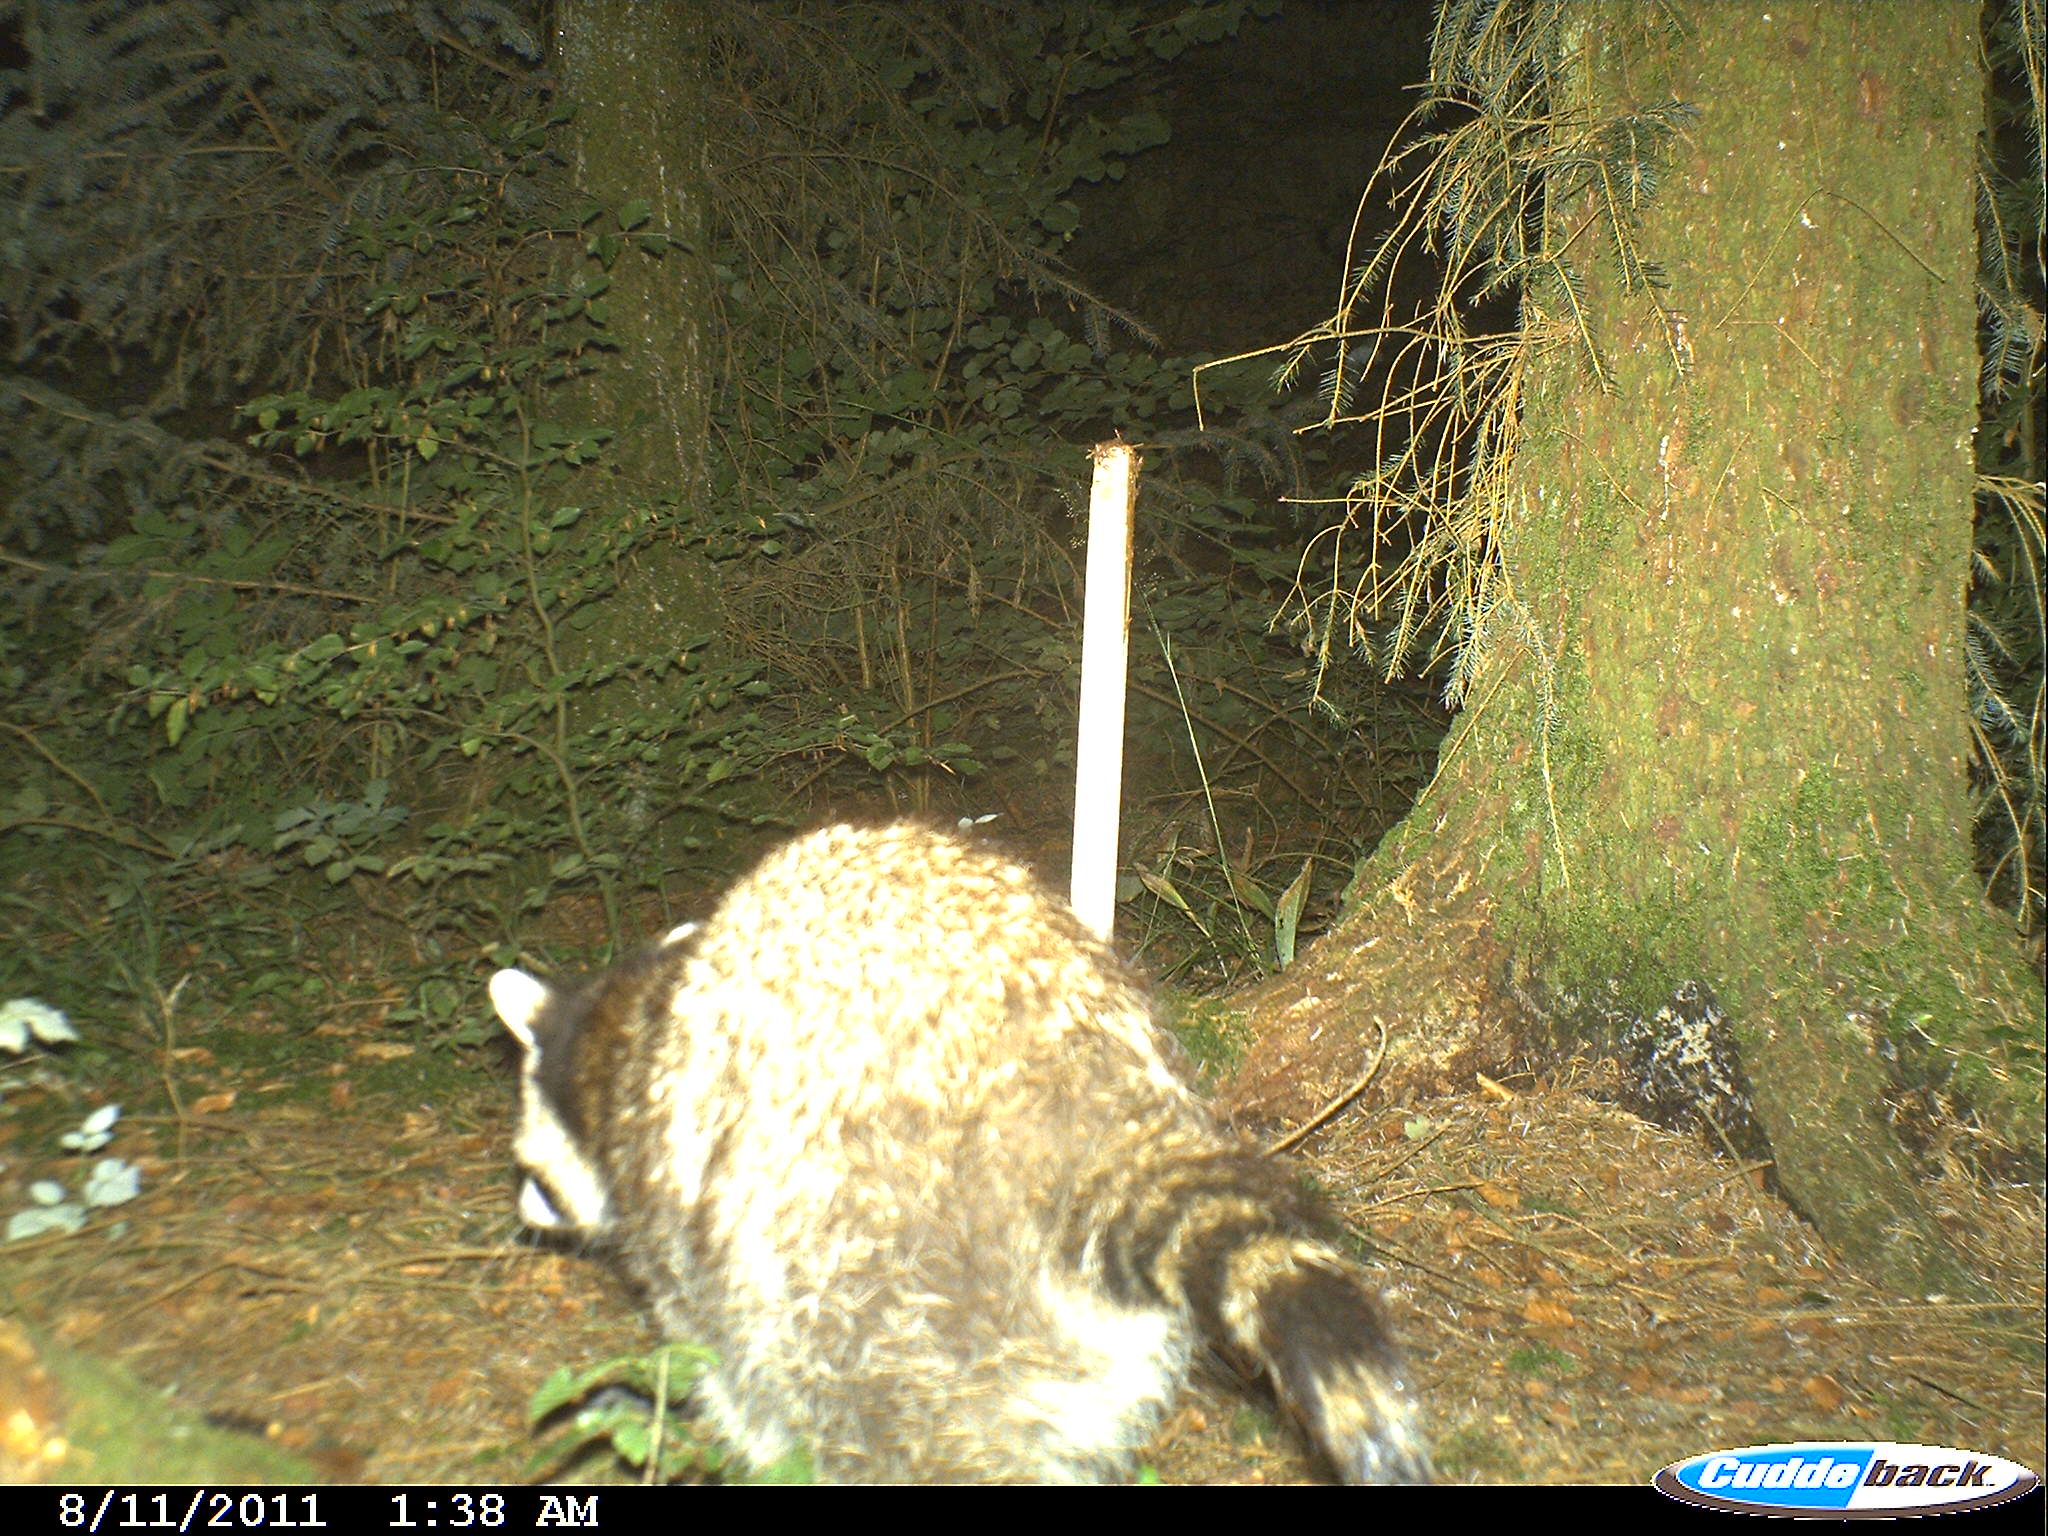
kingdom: Animalia
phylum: Chordata
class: Mammalia
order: Carnivora
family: Procyonidae
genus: Procyon
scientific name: Procyon lotor
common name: Raccoon
